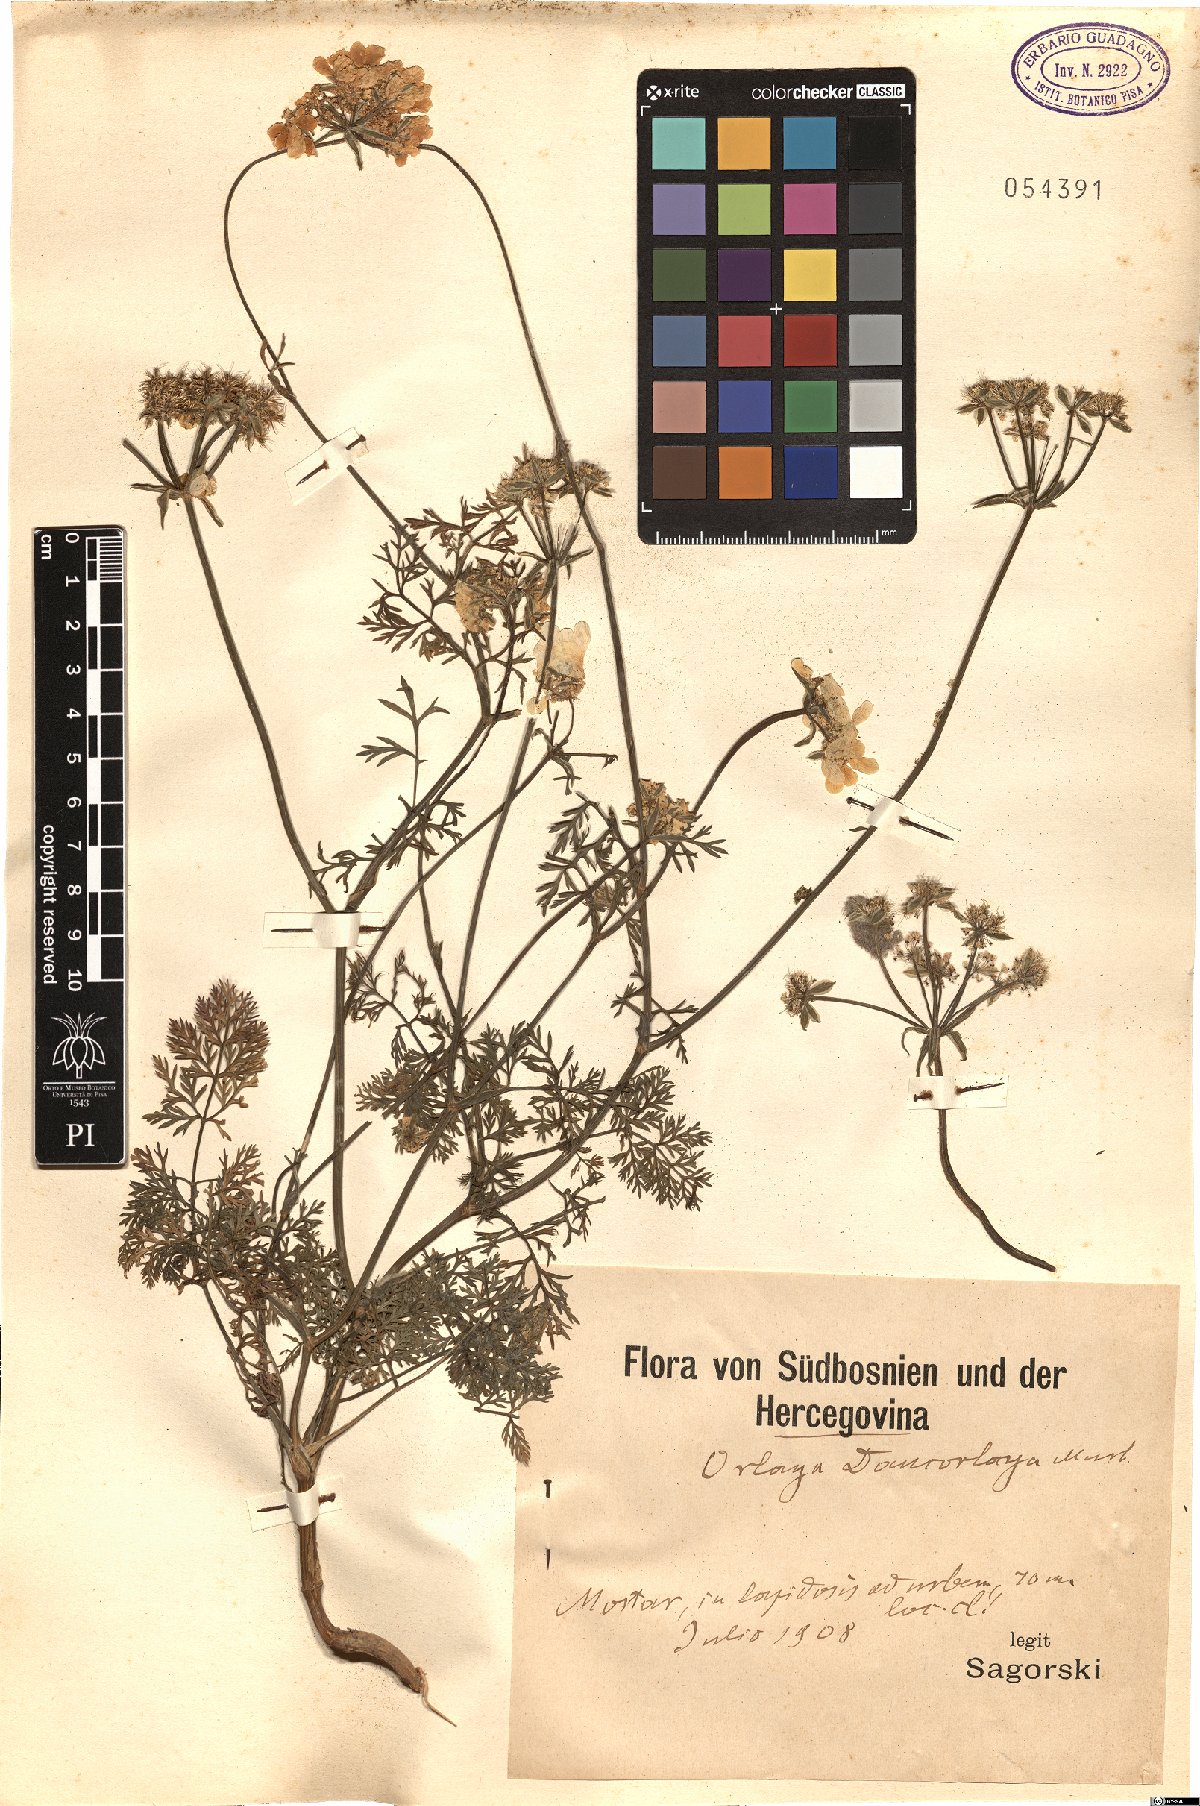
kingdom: Plantae
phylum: Tracheophyta
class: Magnoliopsida
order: Apiales
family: Apiaceae
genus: Orlaya
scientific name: Orlaya daucorlaya
